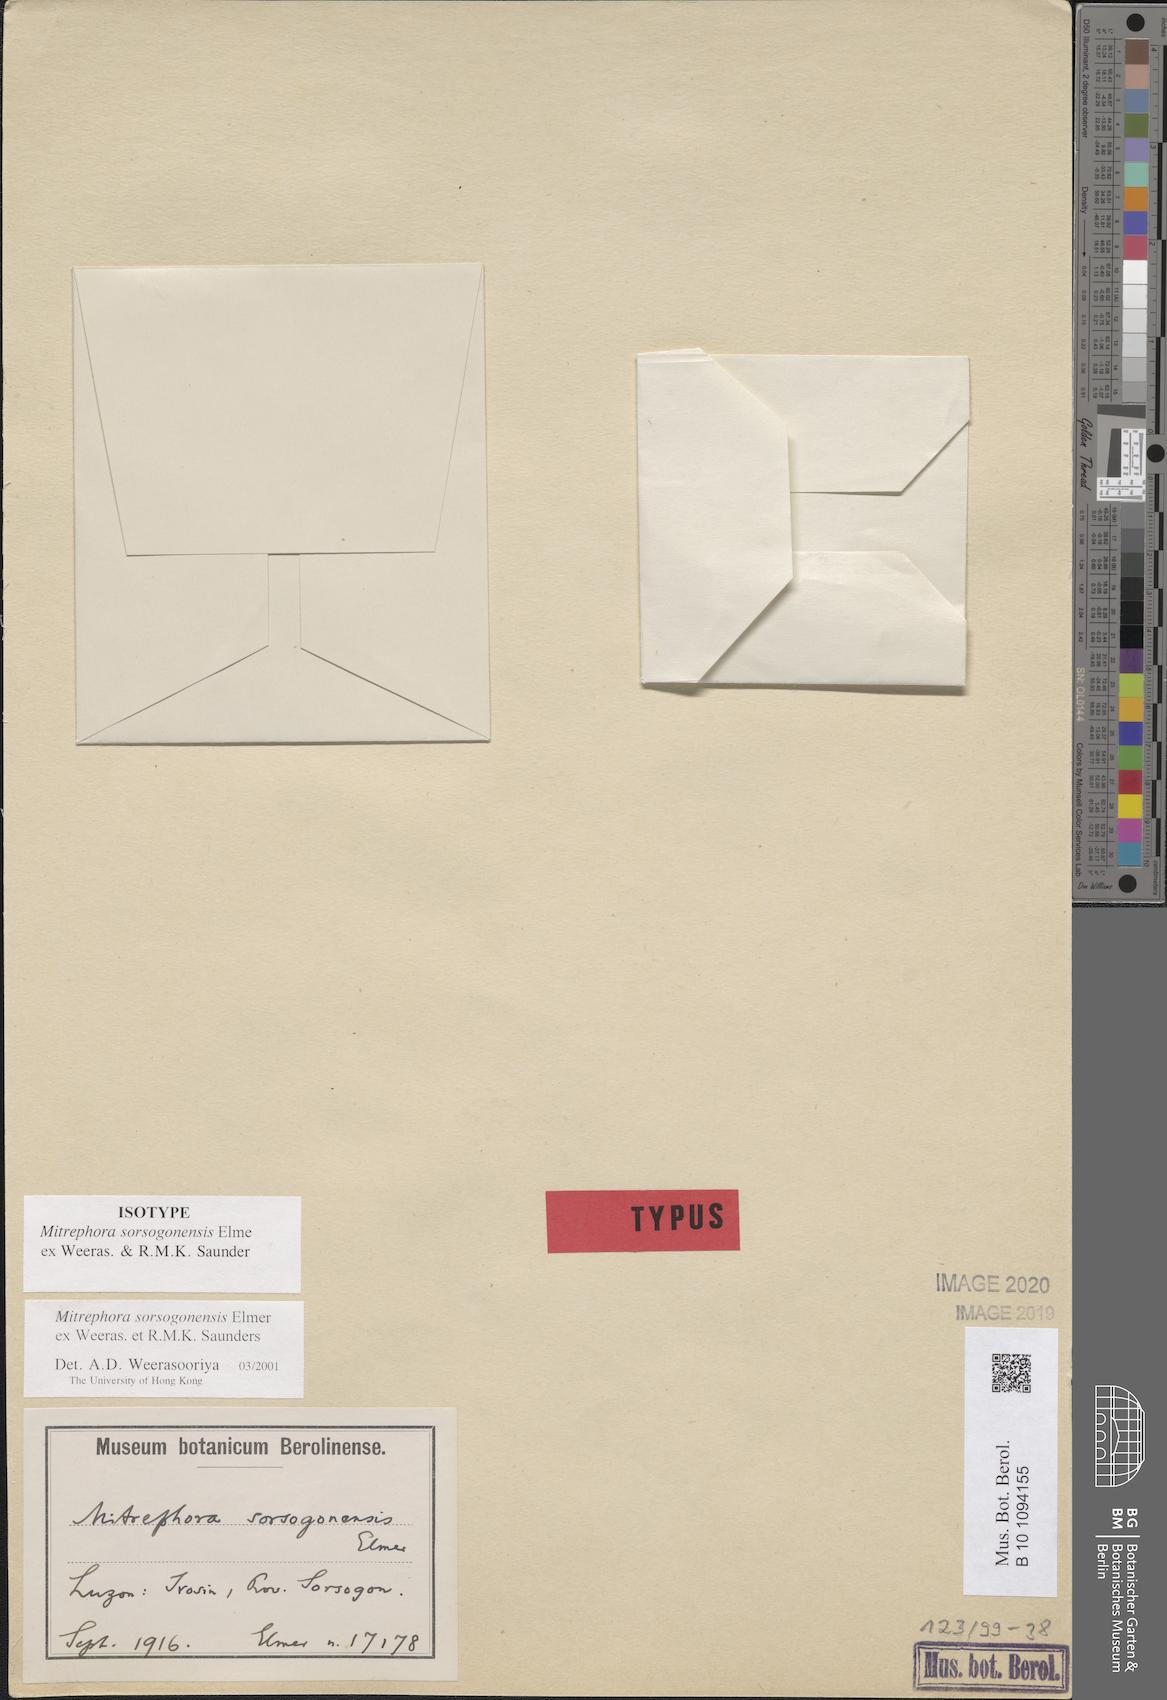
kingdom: Plantae
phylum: Tracheophyta
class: Magnoliopsida
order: Magnoliales
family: Annonaceae
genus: Mitrephora
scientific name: Mitrephora sorsogonensis
